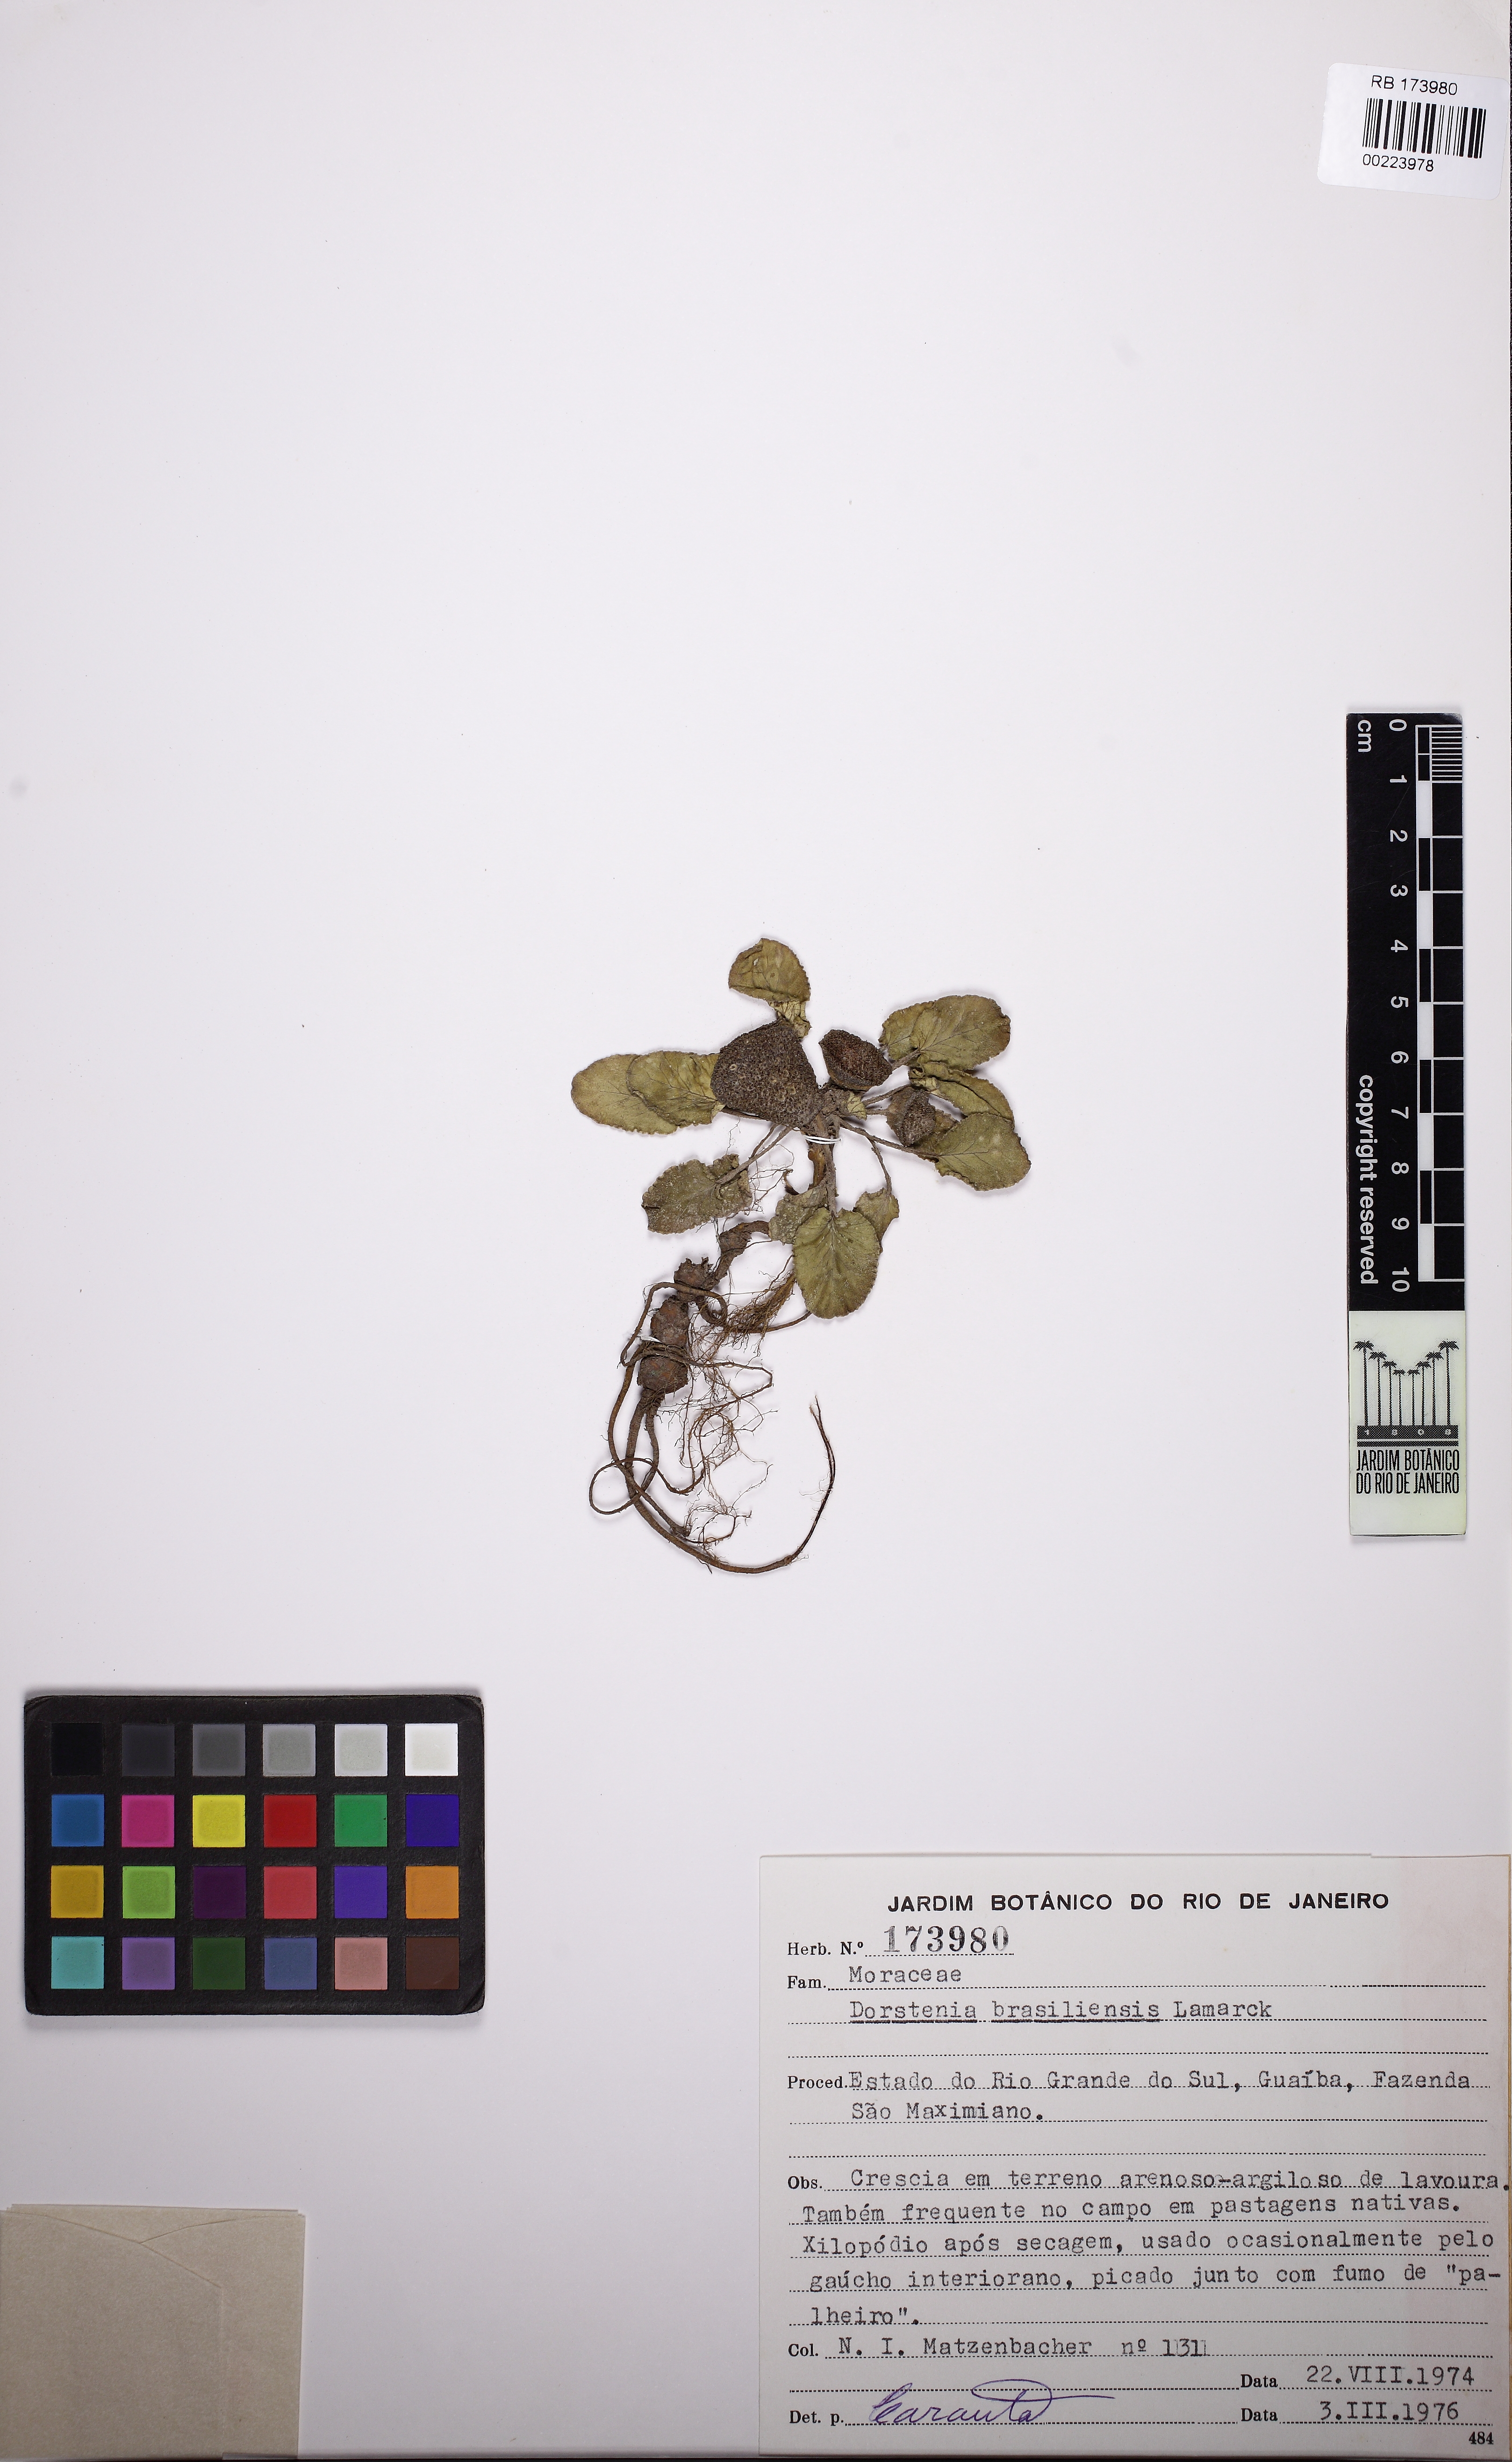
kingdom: Plantae
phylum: Tracheophyta
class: Magnoliopsida
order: Rosales
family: Moraceae
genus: Dorstenia
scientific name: Dorstenia brasiliensis
